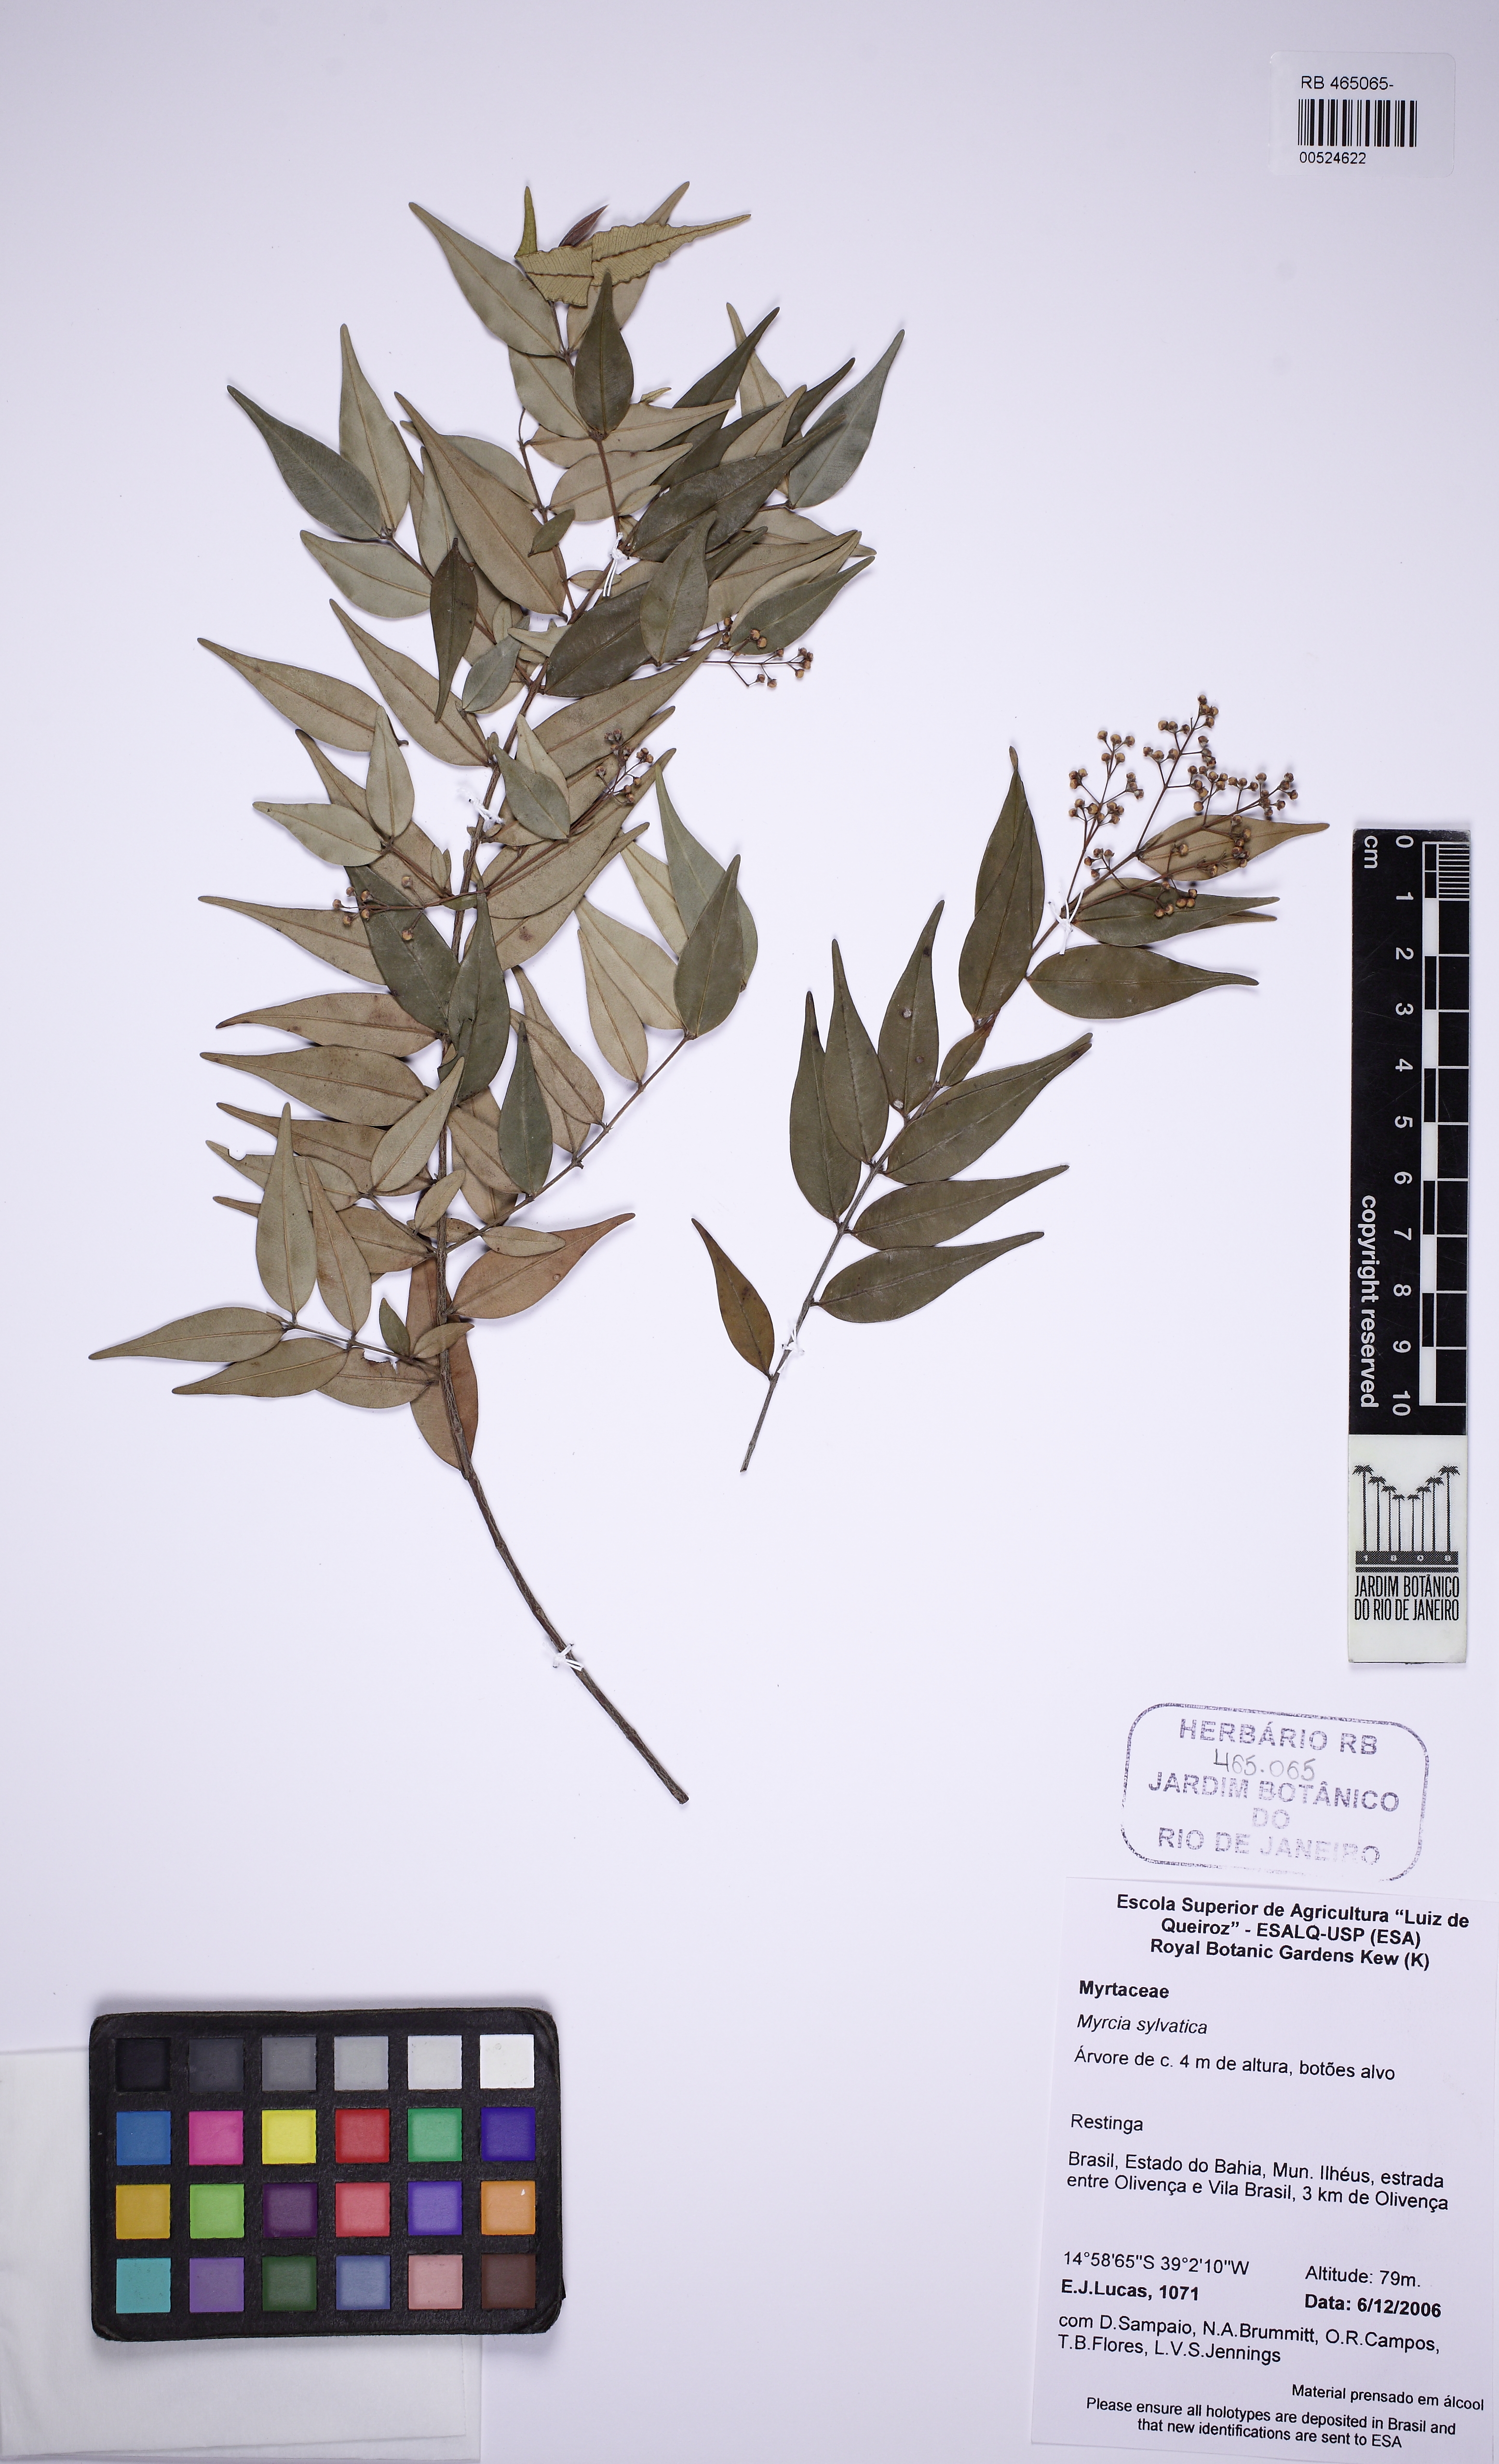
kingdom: Plantae
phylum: Tracheophyta
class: Magnoliopsida
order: Myrtales
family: Myrtaceae
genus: Myrcia
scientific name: Myrcia sylvatica
